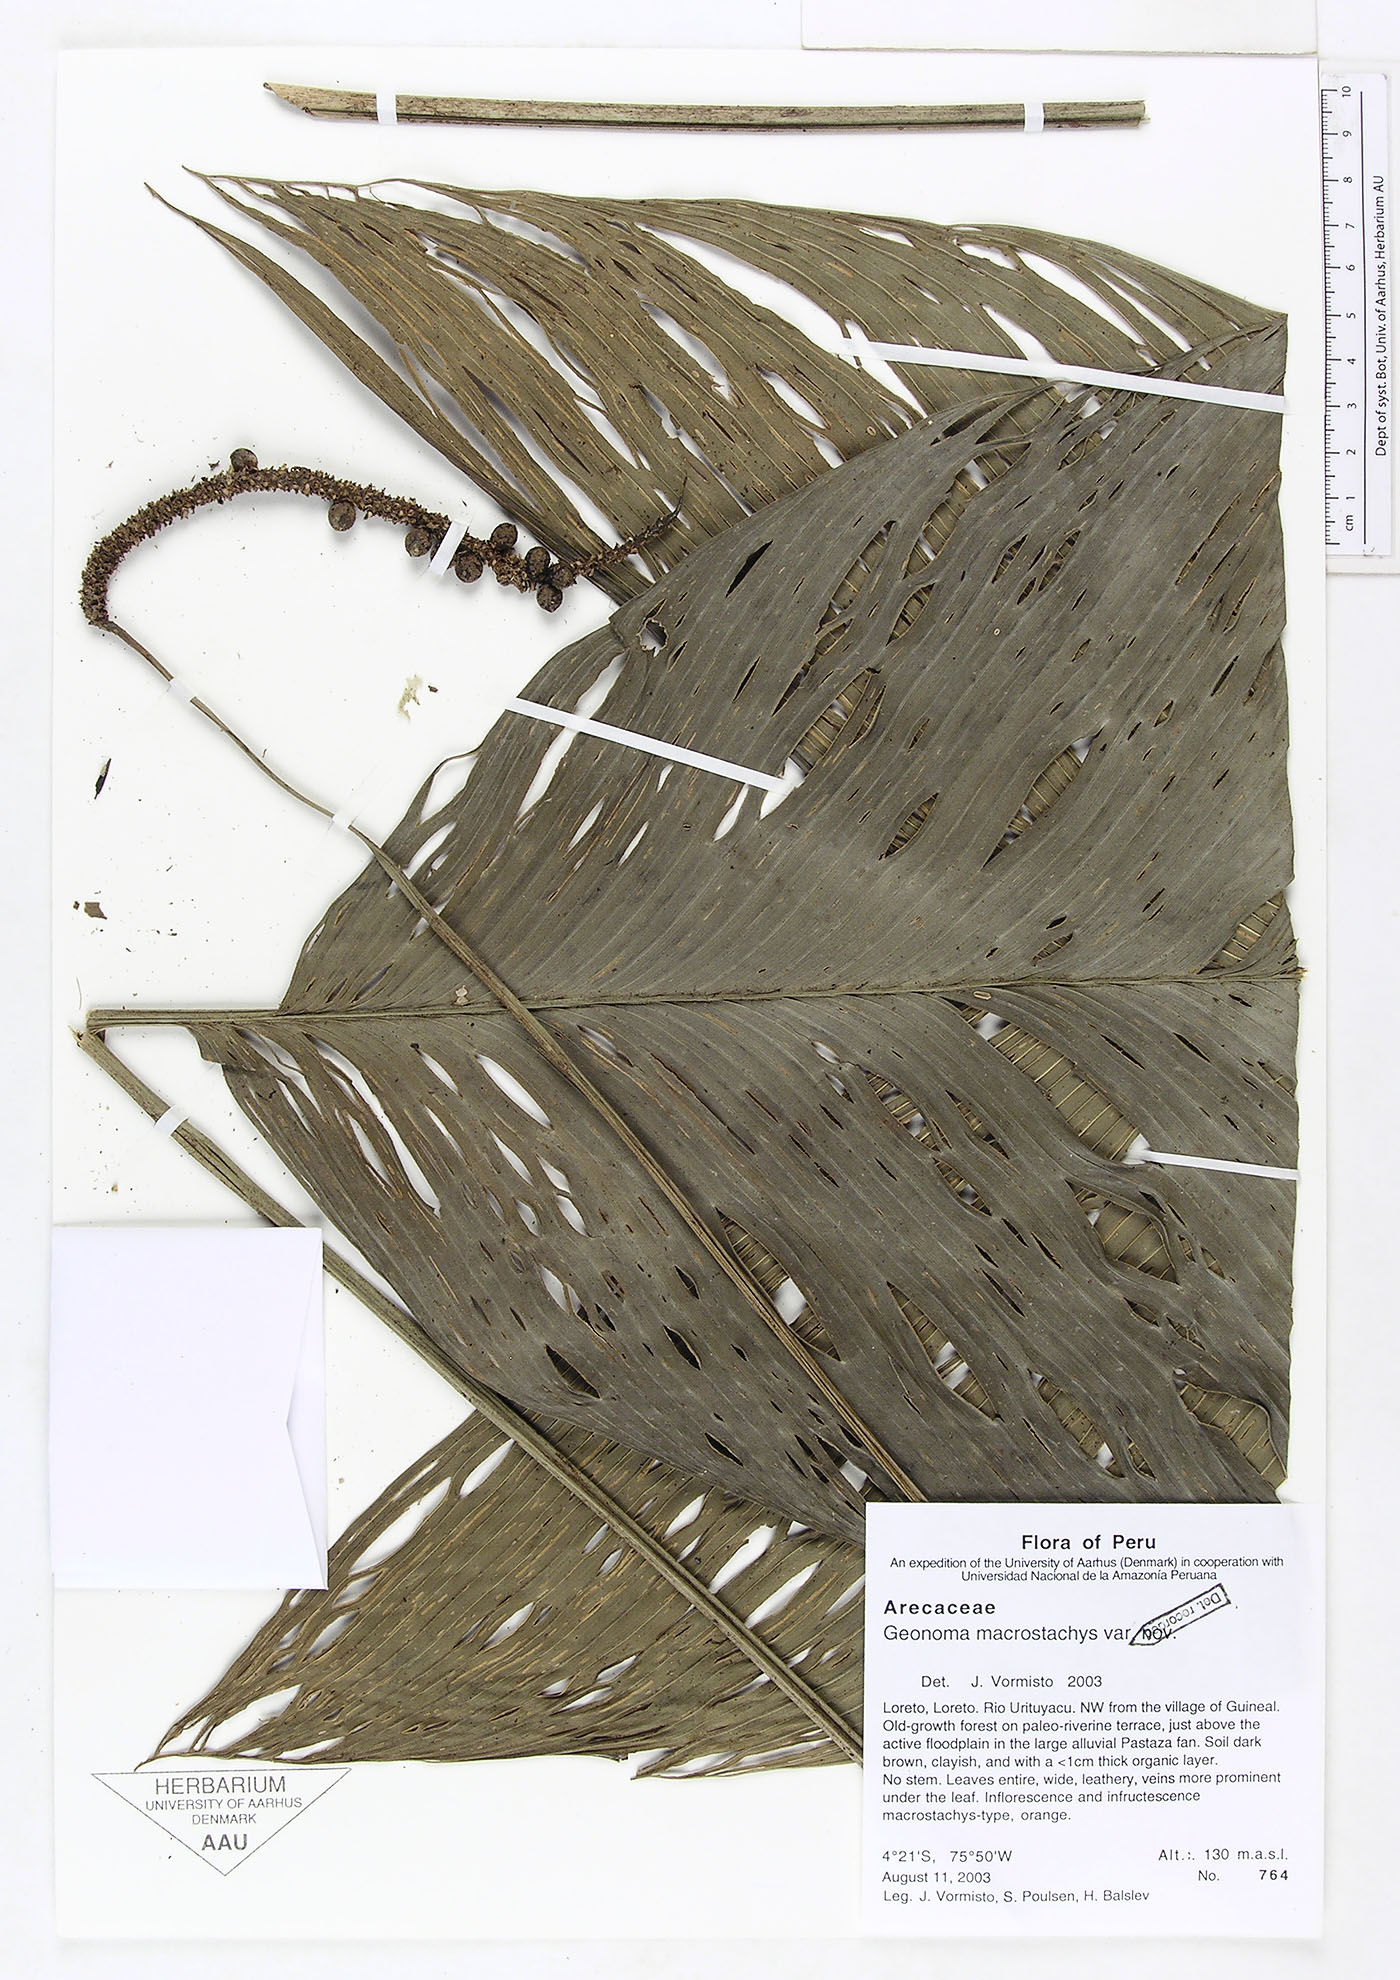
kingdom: Plantae
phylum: Tracheophyta
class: Liliopsida
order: Arecales
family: Arecaceae
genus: Geonoma
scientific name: Geonoma macrostachys
